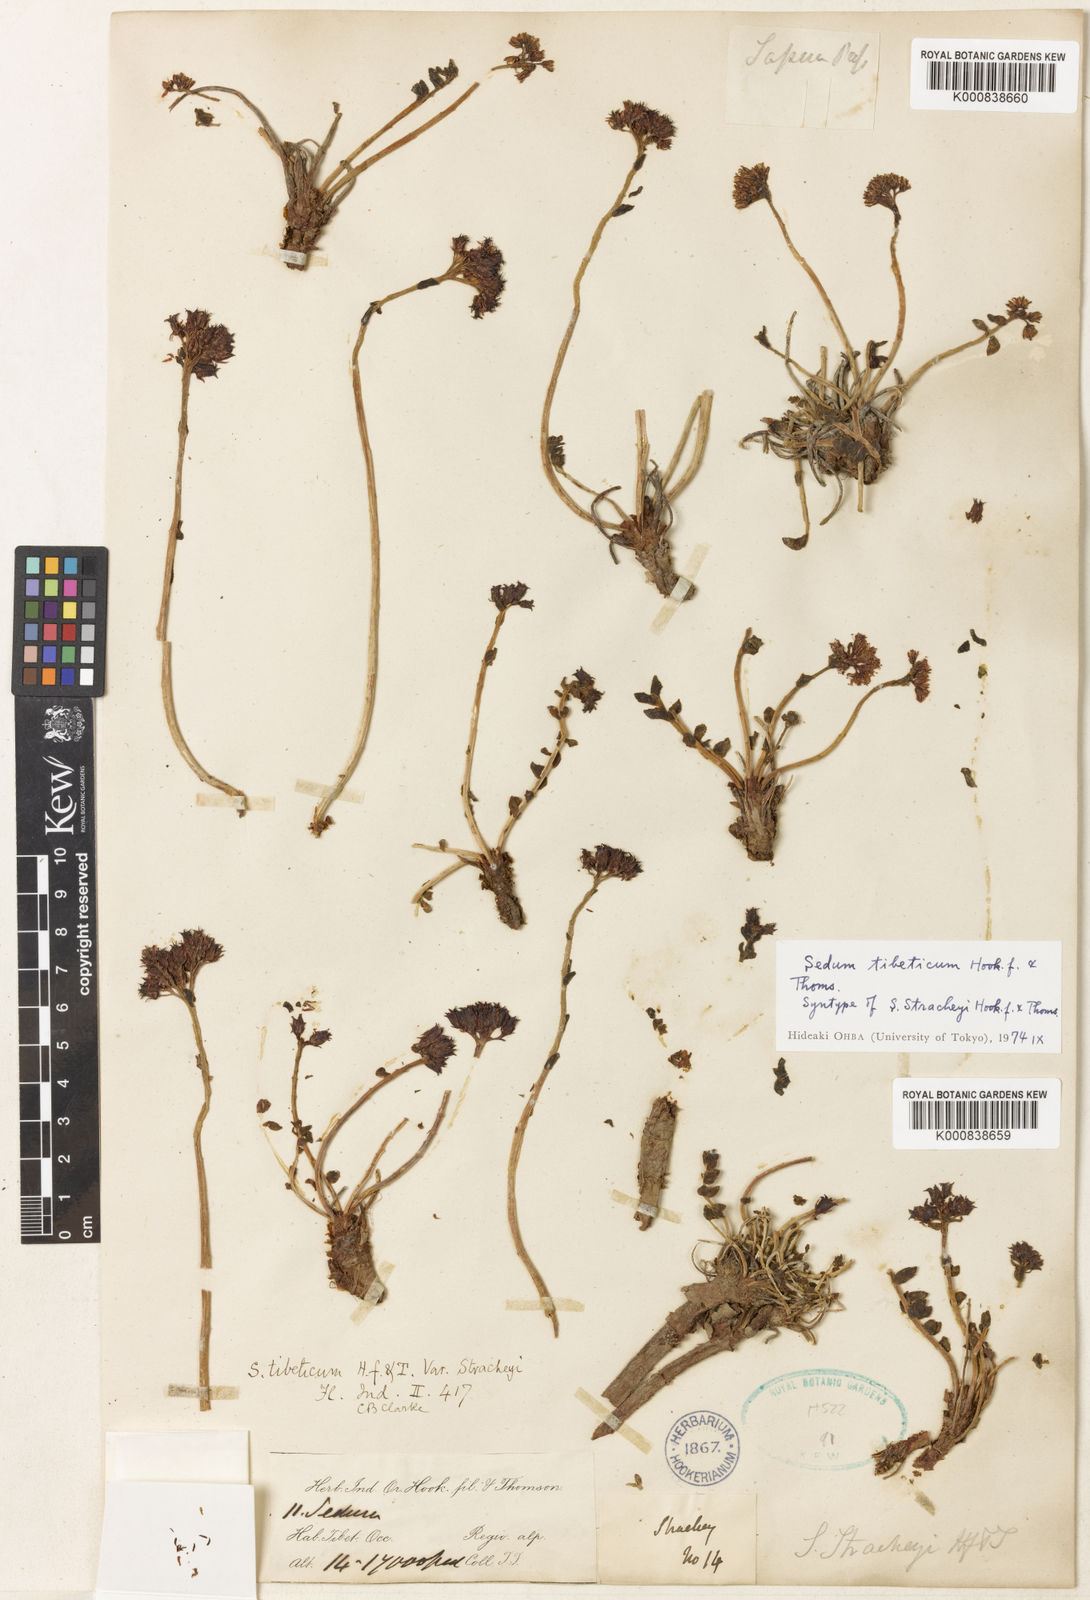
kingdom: Plantae
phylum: Tracheophyta
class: Magnoliopsida
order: Saxifragales
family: Crassulaceae
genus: Rhodiola
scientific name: Rhodiola tibetica
